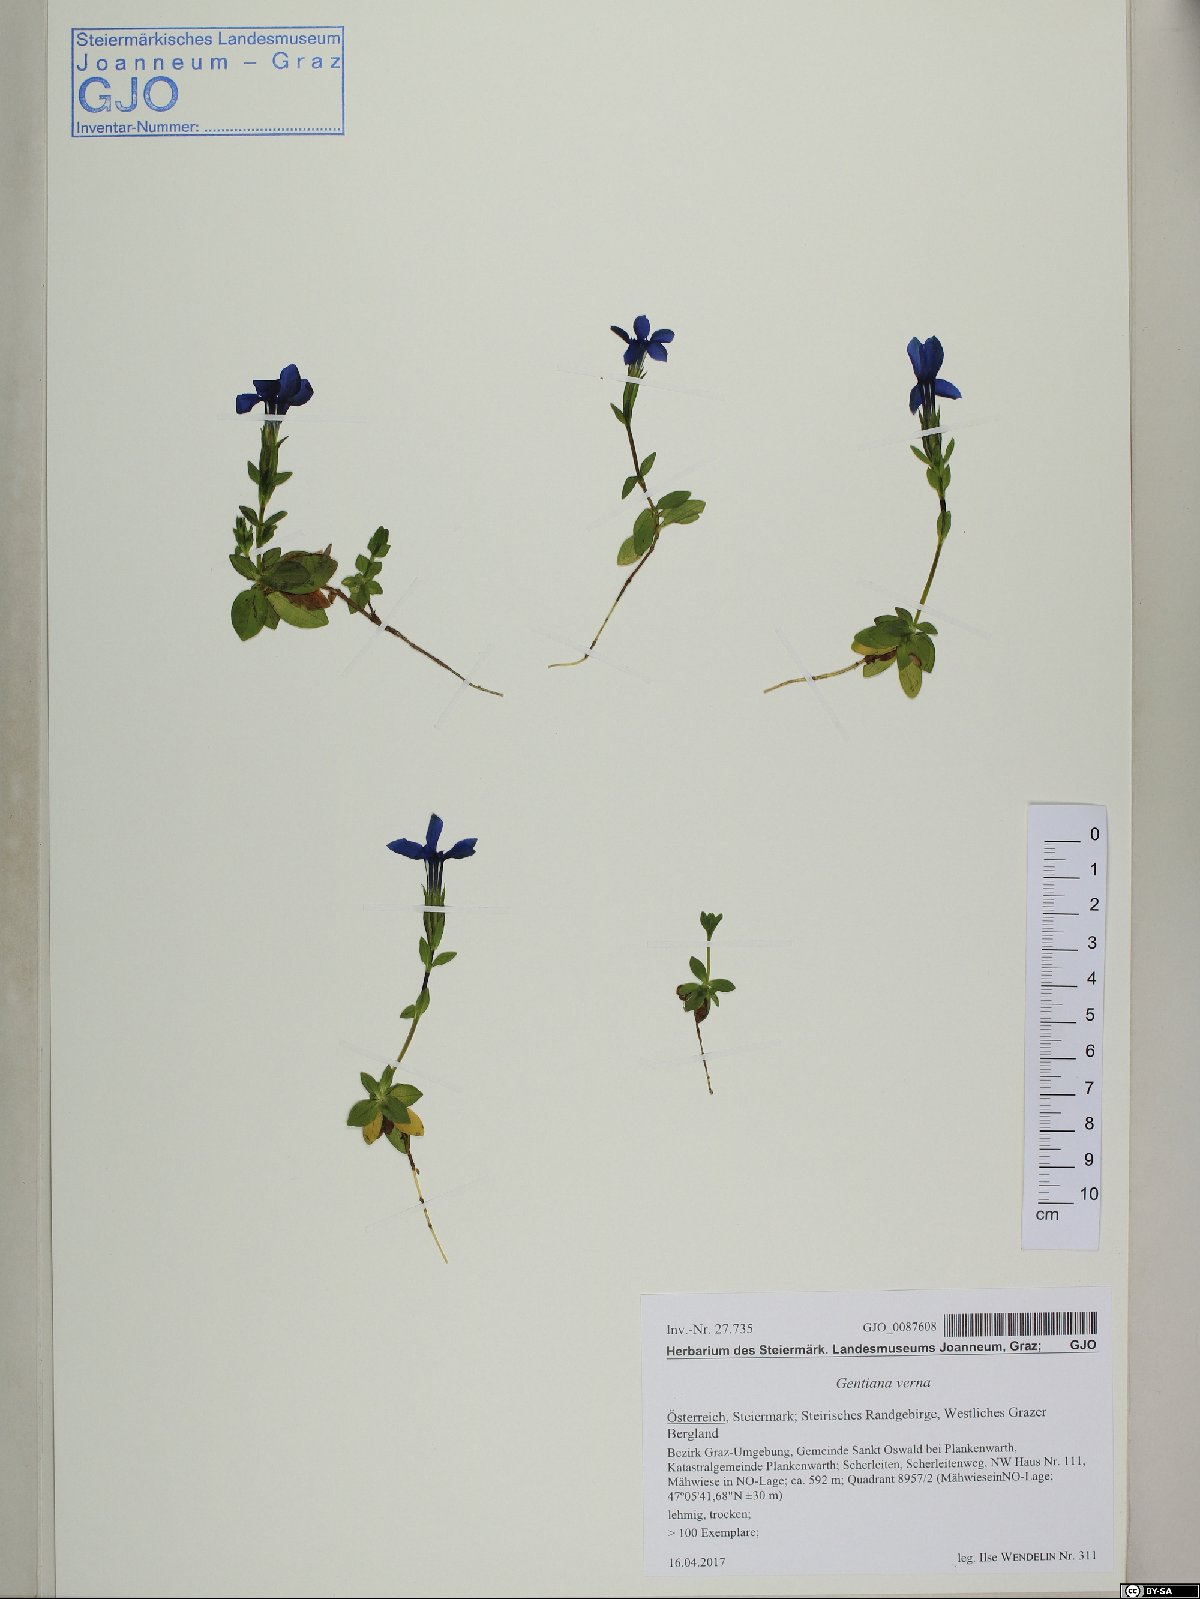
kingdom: Plantae
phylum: Tracheophyta
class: Magnoliopsida
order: Gentianales
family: Gentianaceae
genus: Gentiana
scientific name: Gentiana verna
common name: Spring gentian
